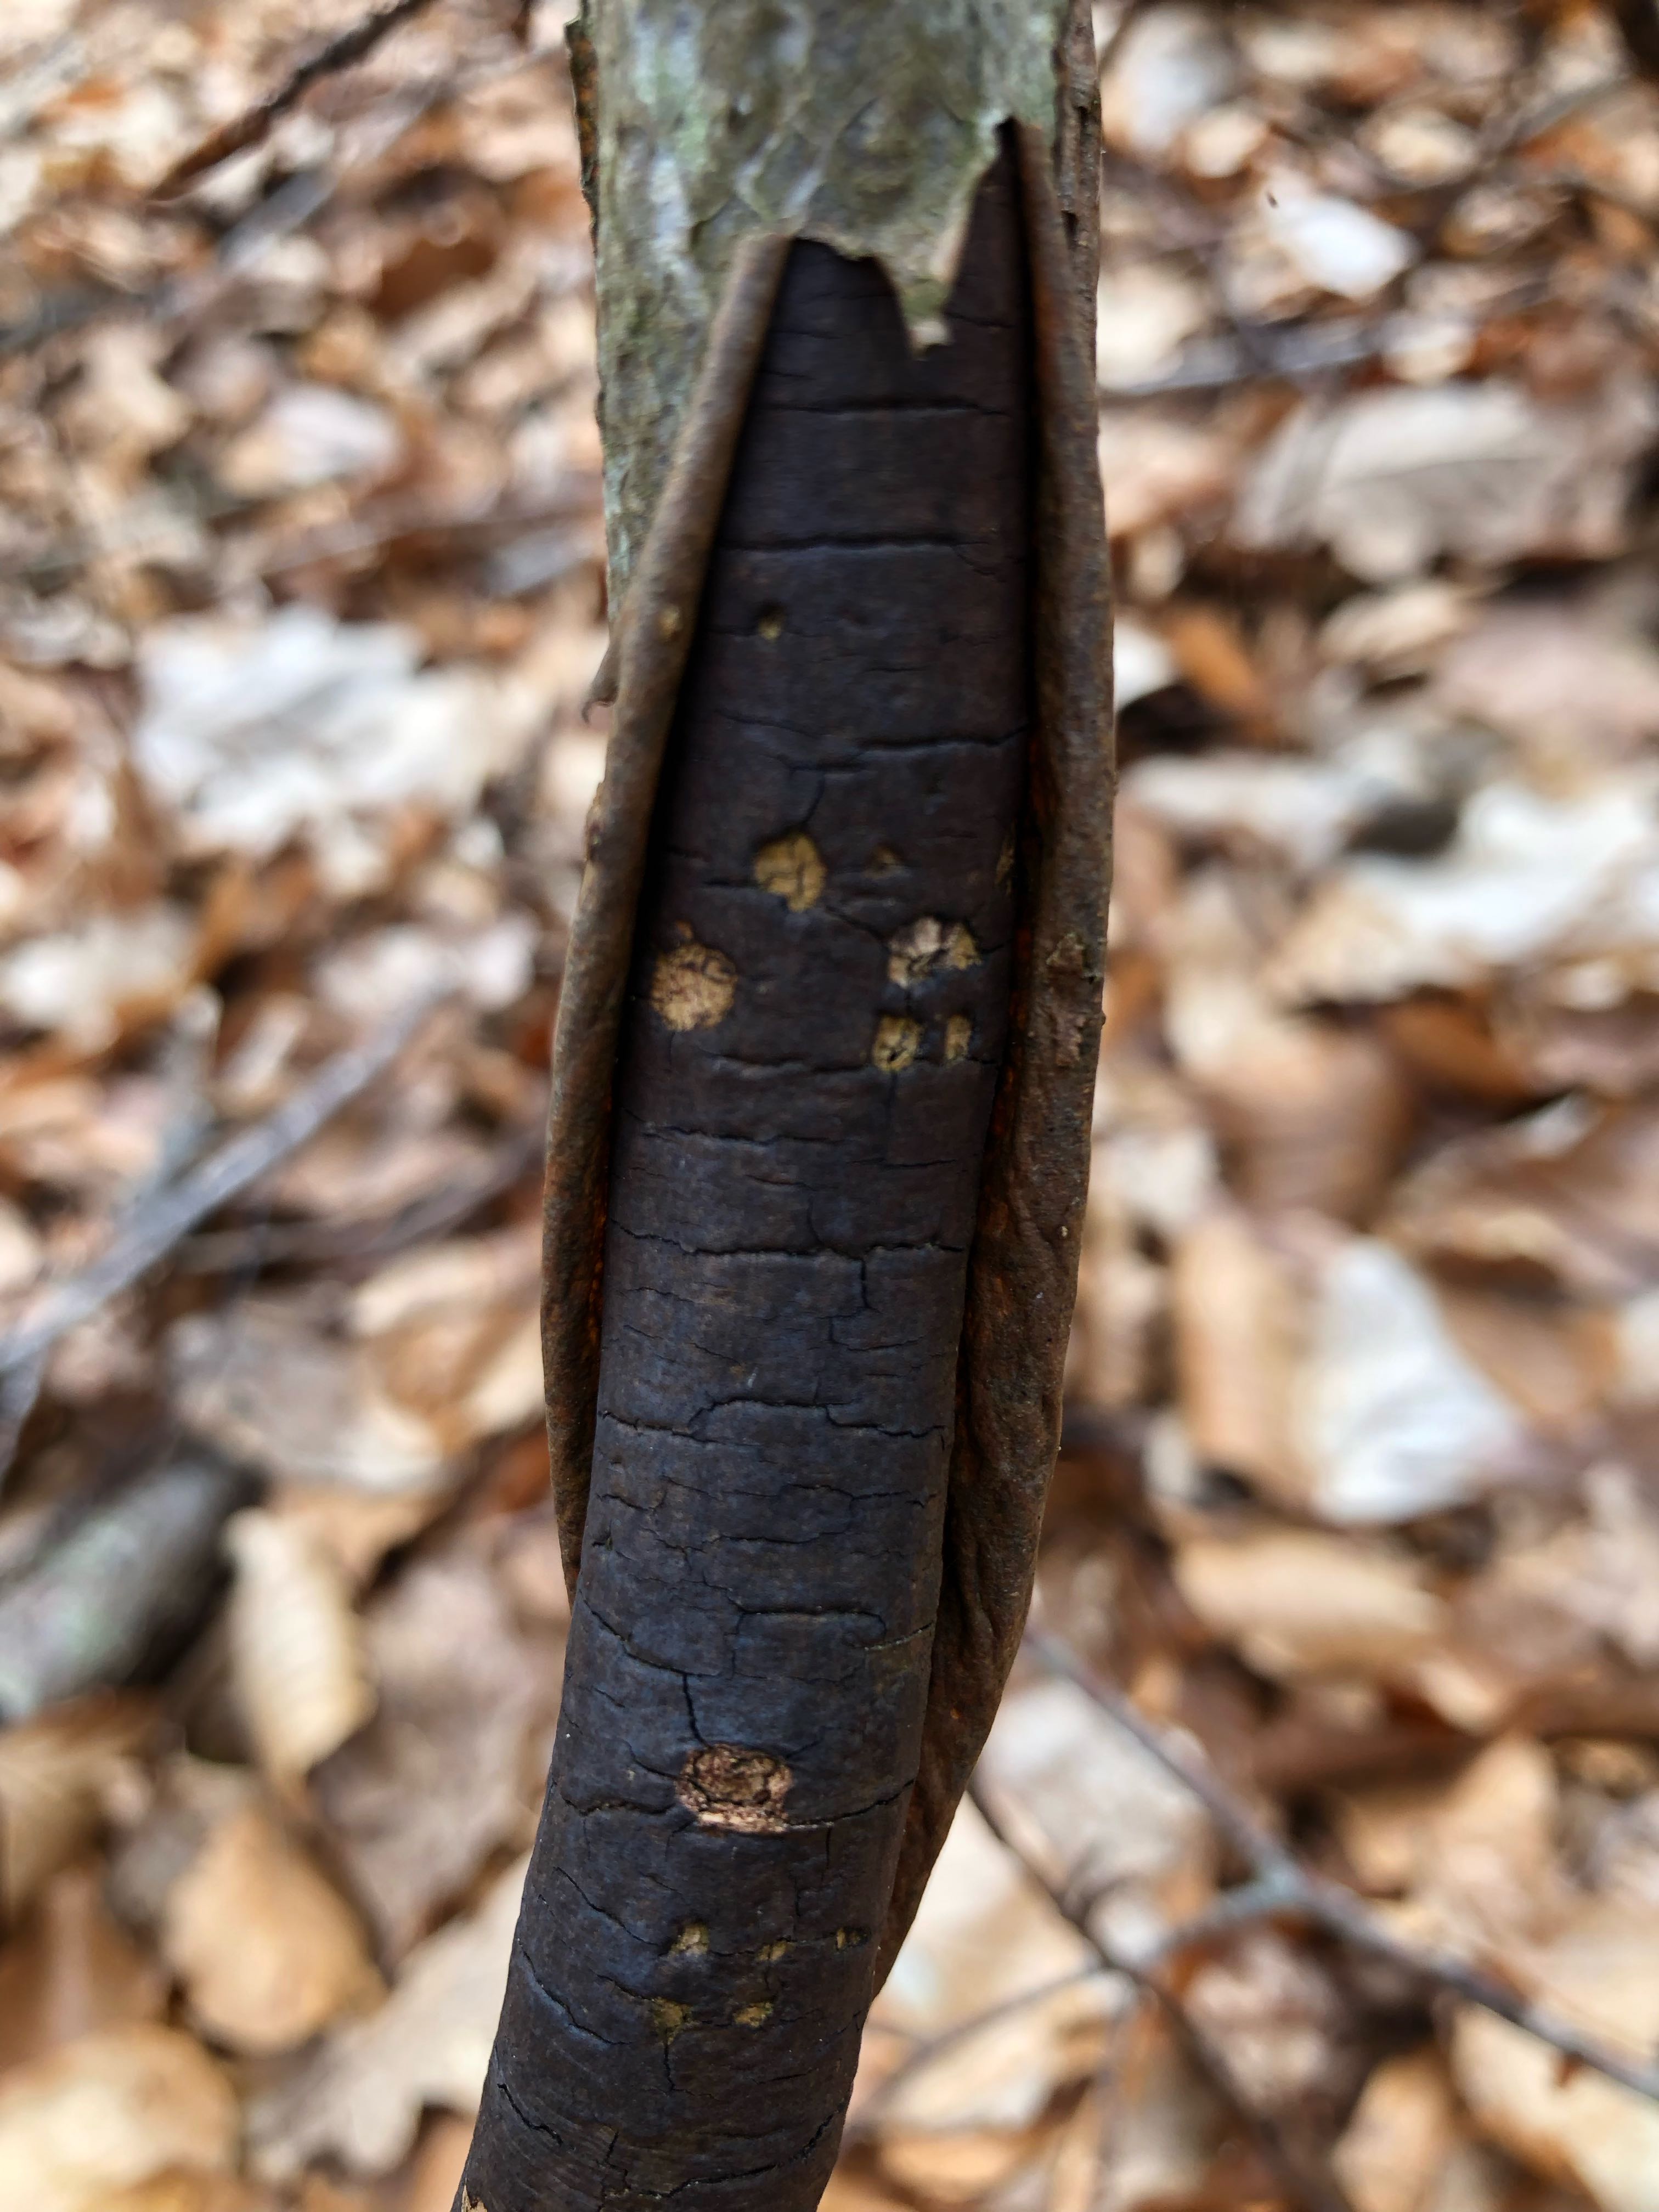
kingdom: Fungi
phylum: Ascomycota
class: Sordariomycetes
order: Xylariales
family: Diatrypaceae
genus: Diatrype
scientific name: Diatrype decorticata
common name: barksprænger-kulskorpe
